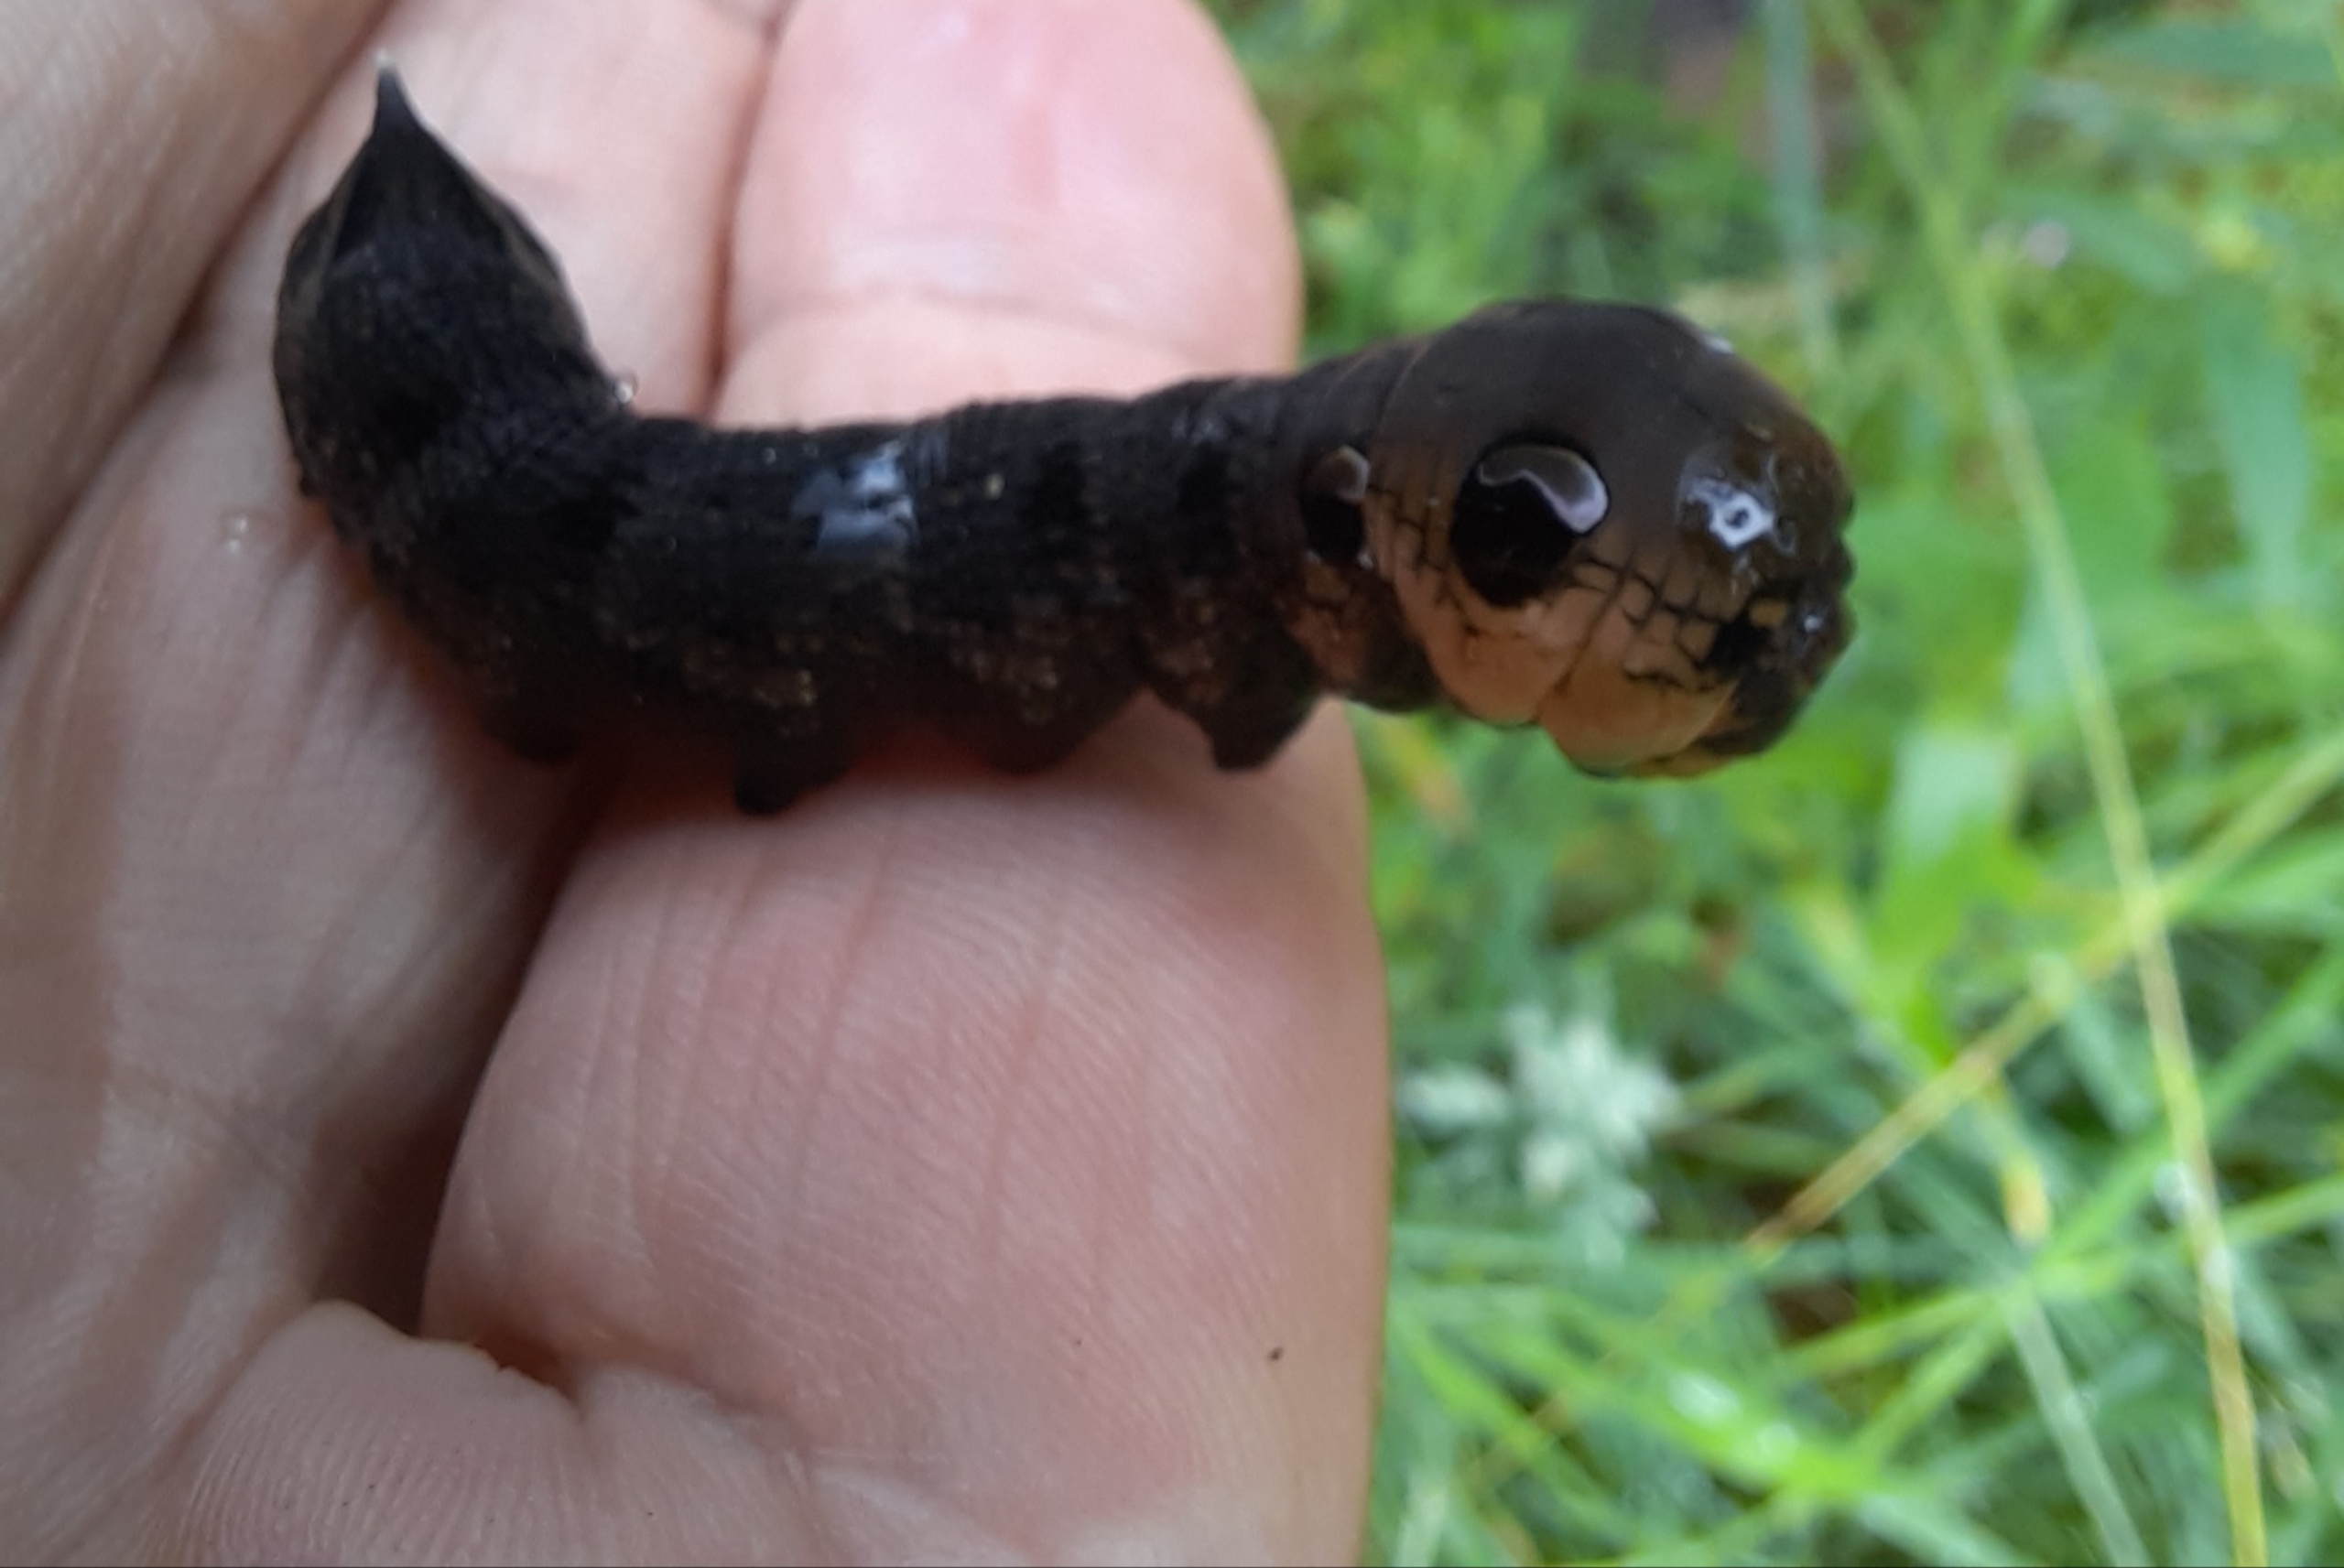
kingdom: Animalia
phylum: Arthropoda
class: Insecta
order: Lepidoptera
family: Sphingidae
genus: Deilephila
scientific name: Deilephila elpenor
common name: Dueurtsværmer
